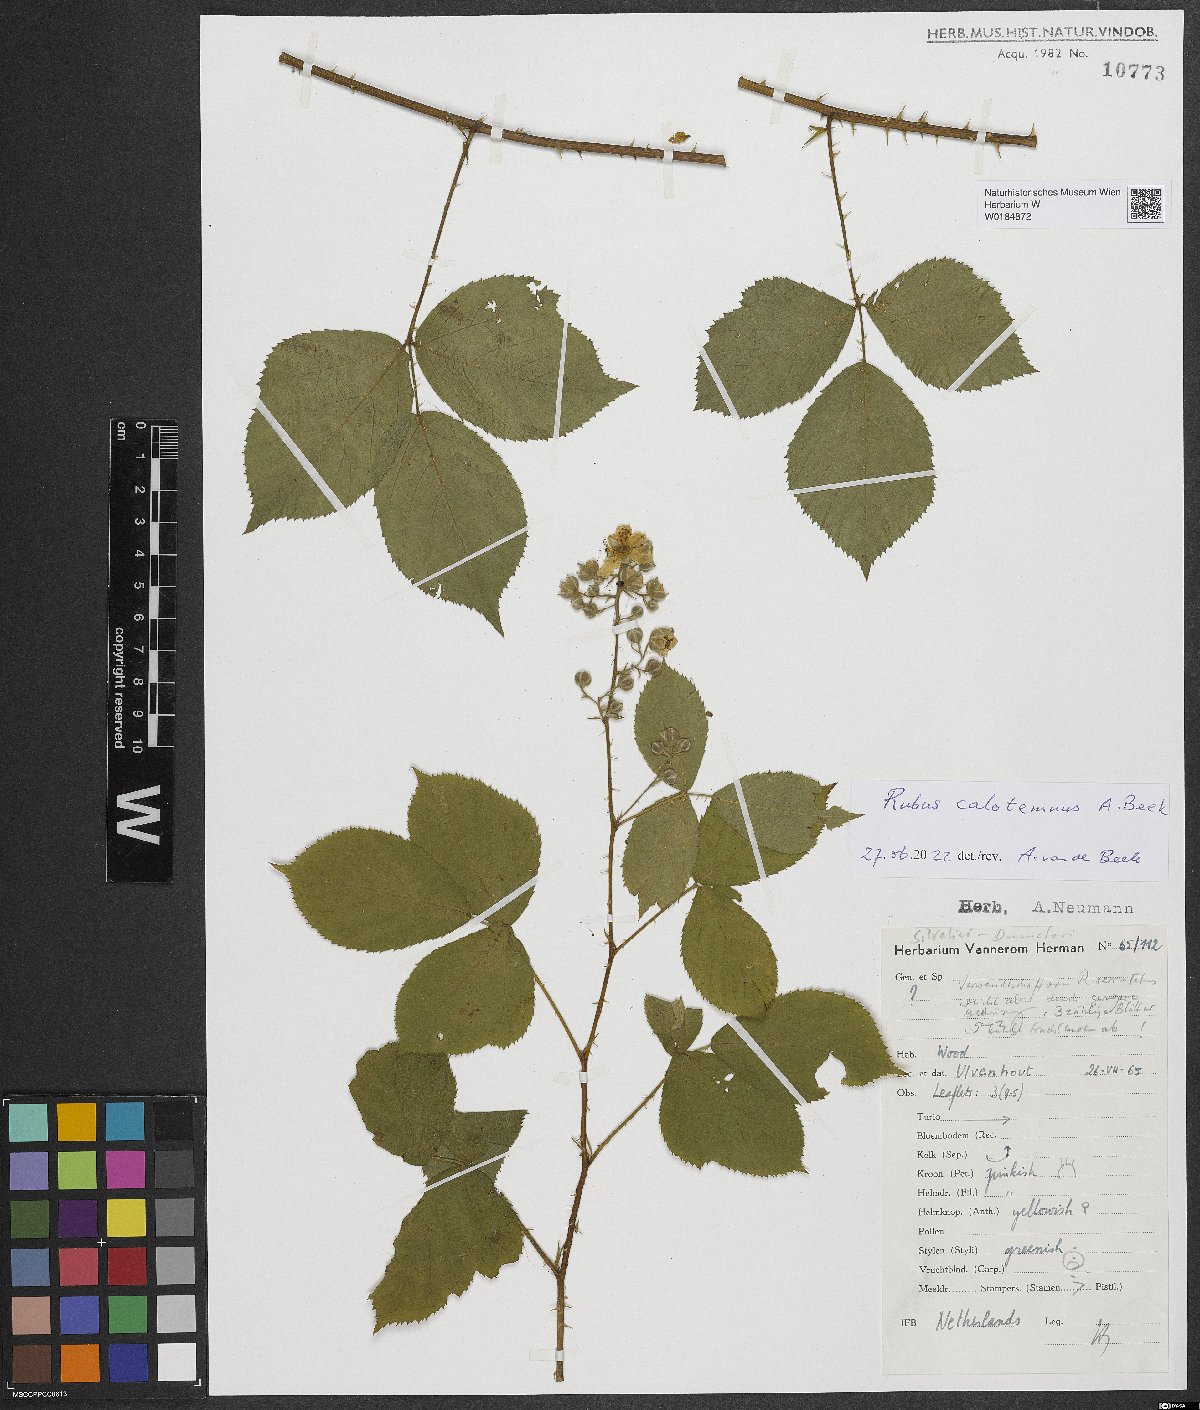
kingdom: Plantae
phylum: Tracheophyta
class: Magnoliopsida
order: Rosales
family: Rosaceae
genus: Rubus
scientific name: Rubus calotemnus
